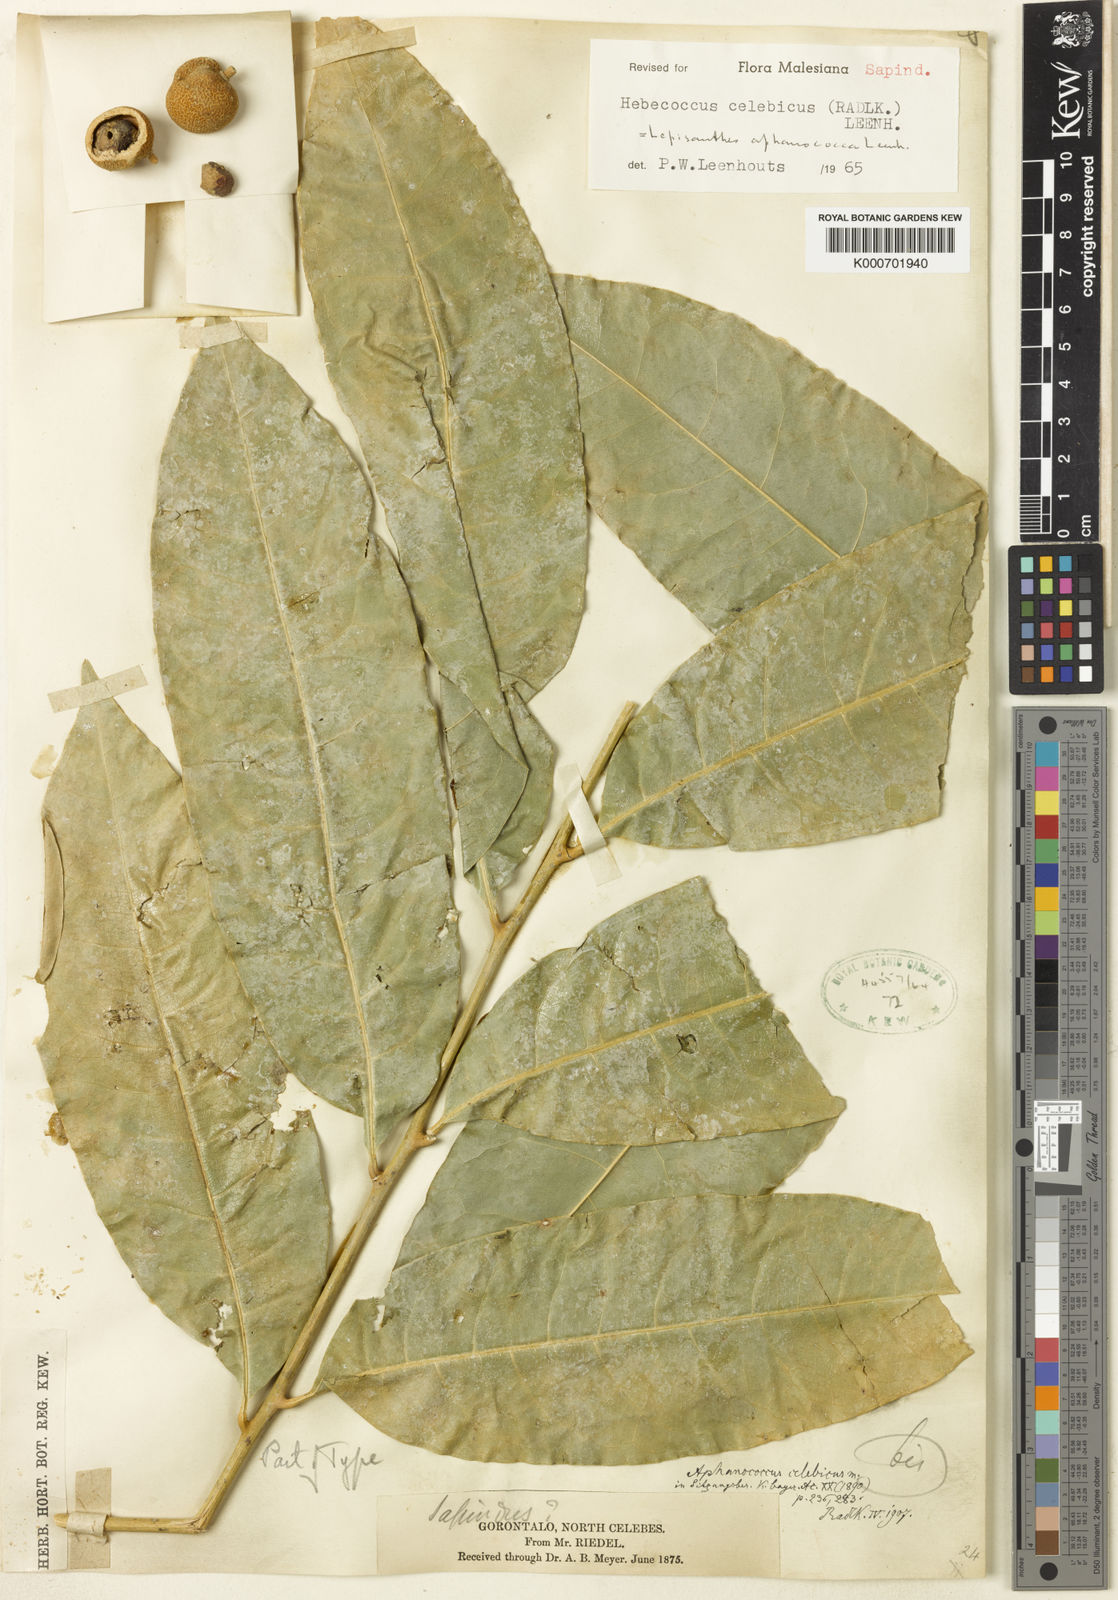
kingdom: Plantae
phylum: Tracheophyta
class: Magnoliopsida
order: Sapindales
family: Sapindaceae
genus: Lepisanthes
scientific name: Lepisanthes falcata
